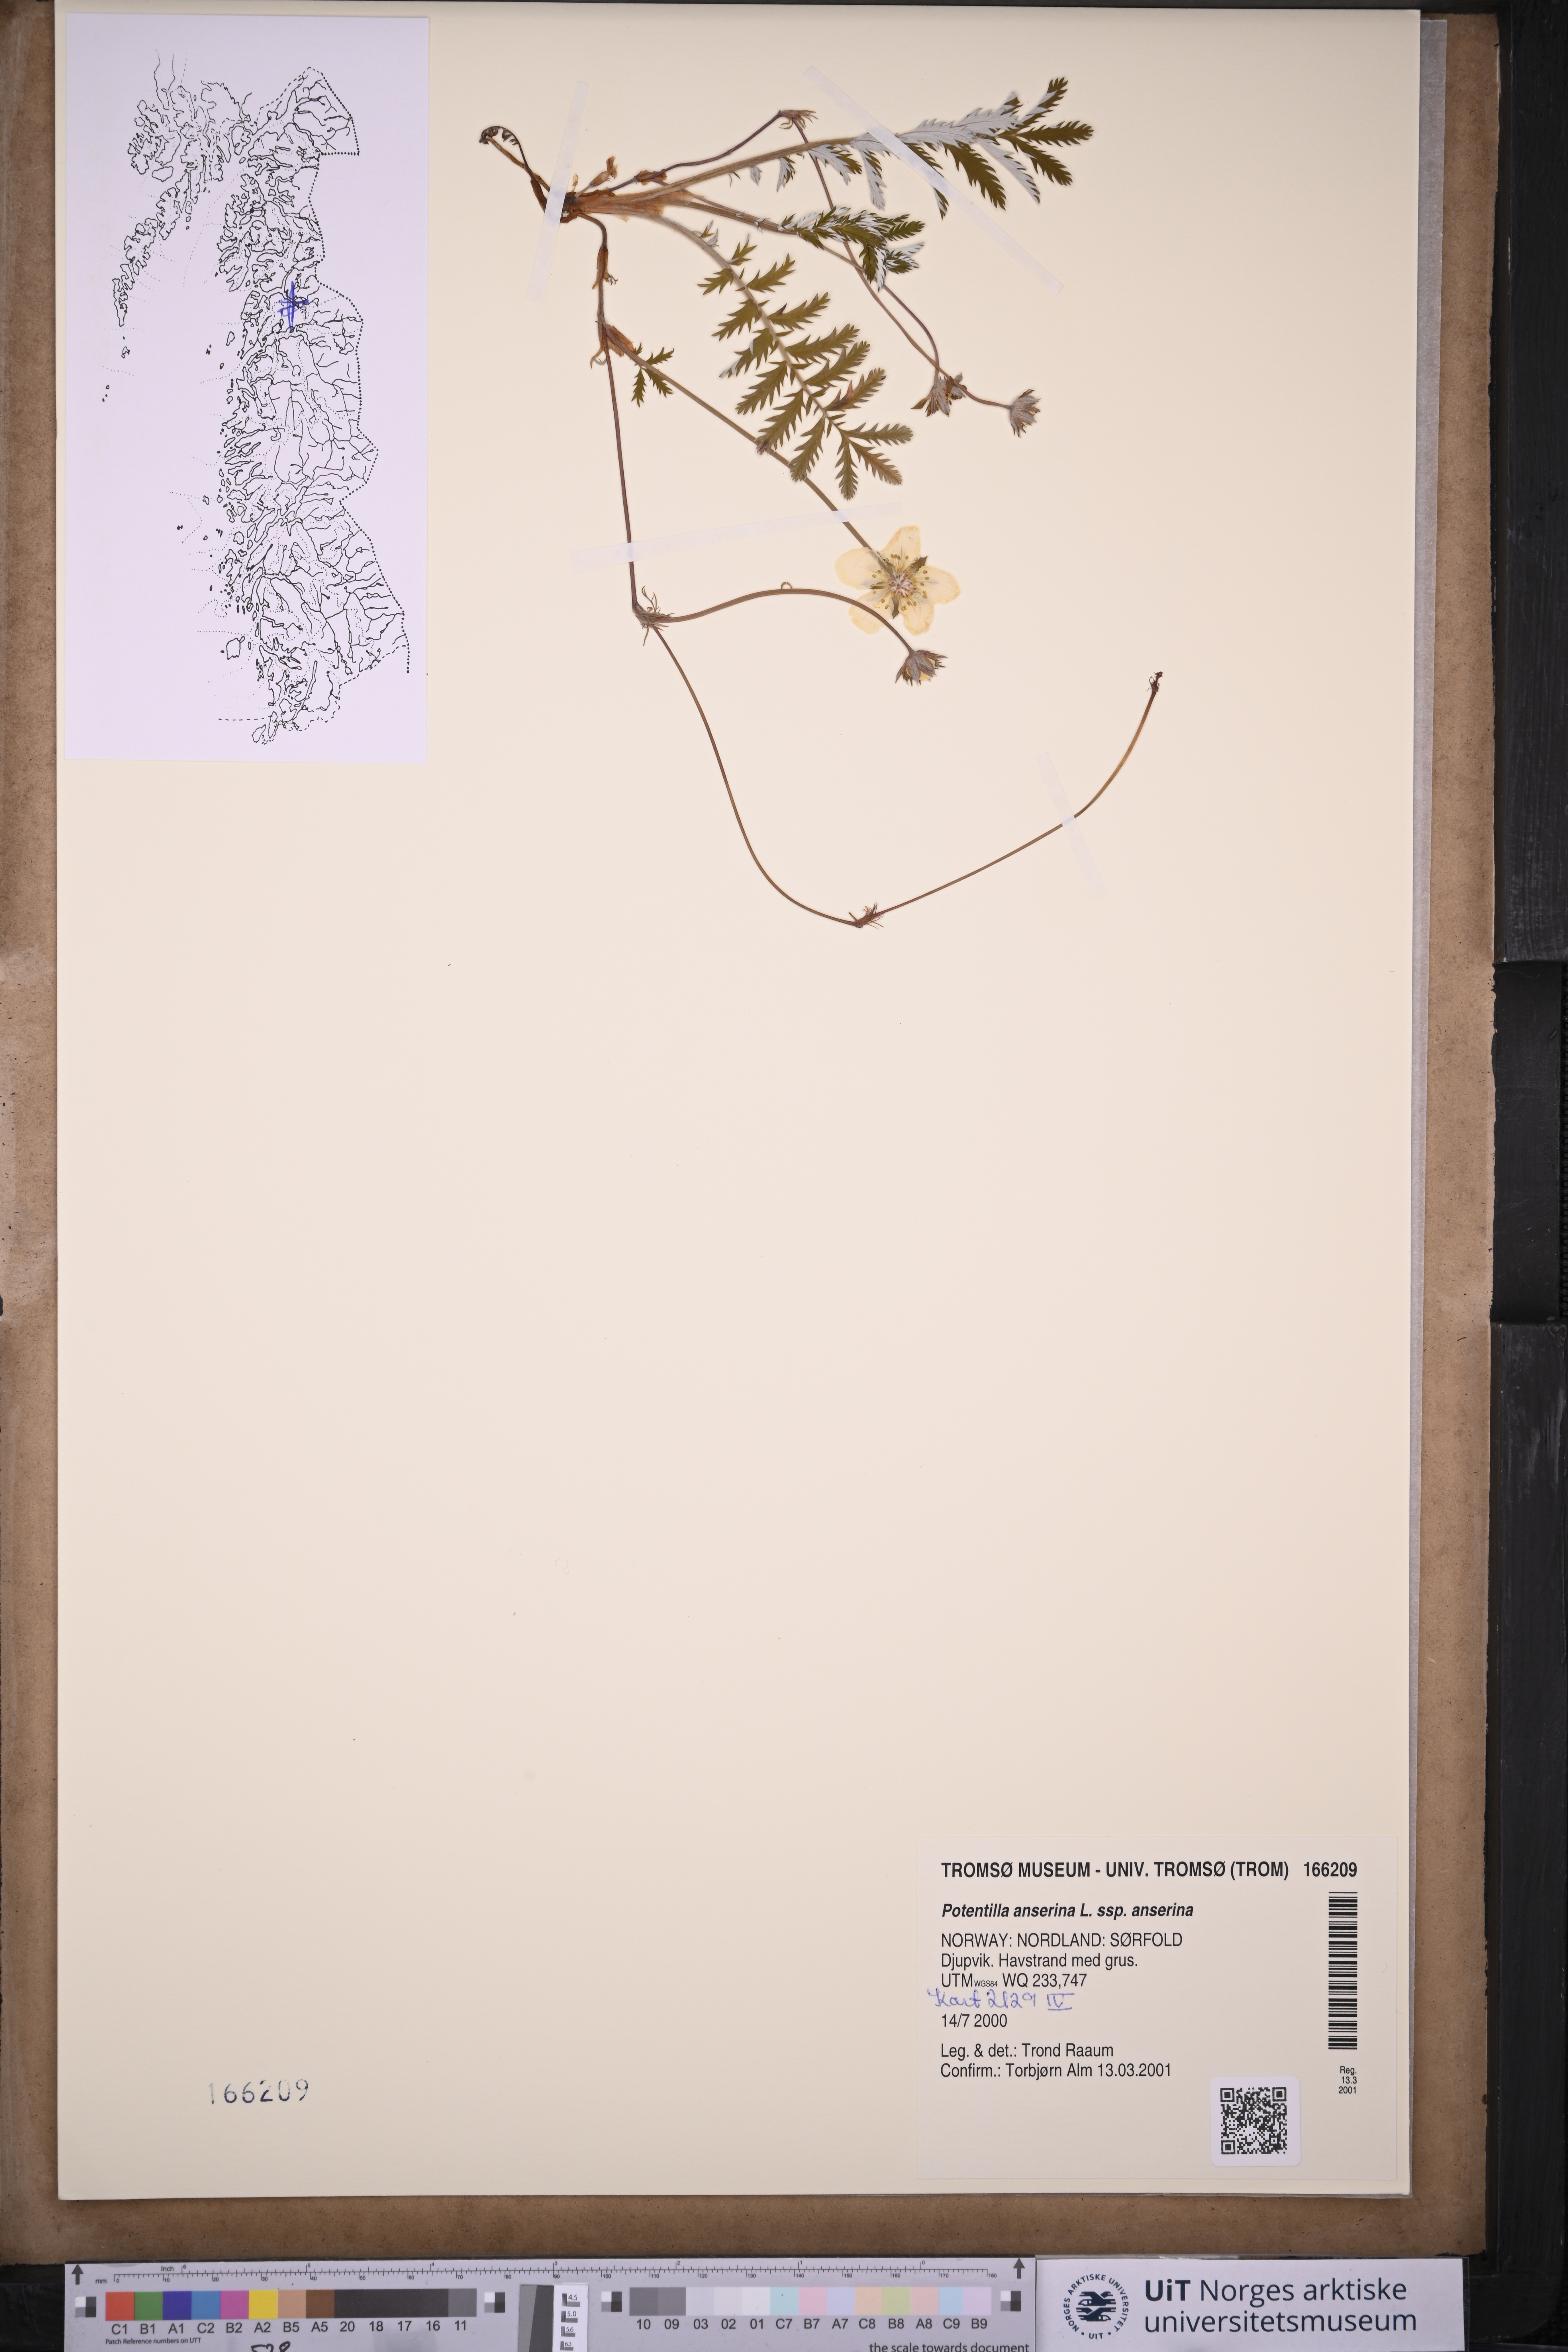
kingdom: Plantae
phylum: Tracheophyta
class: Magnoliopsida
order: Rosales
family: Rosaceae
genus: Argentina
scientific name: Argentina anserina
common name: Common silverweed
